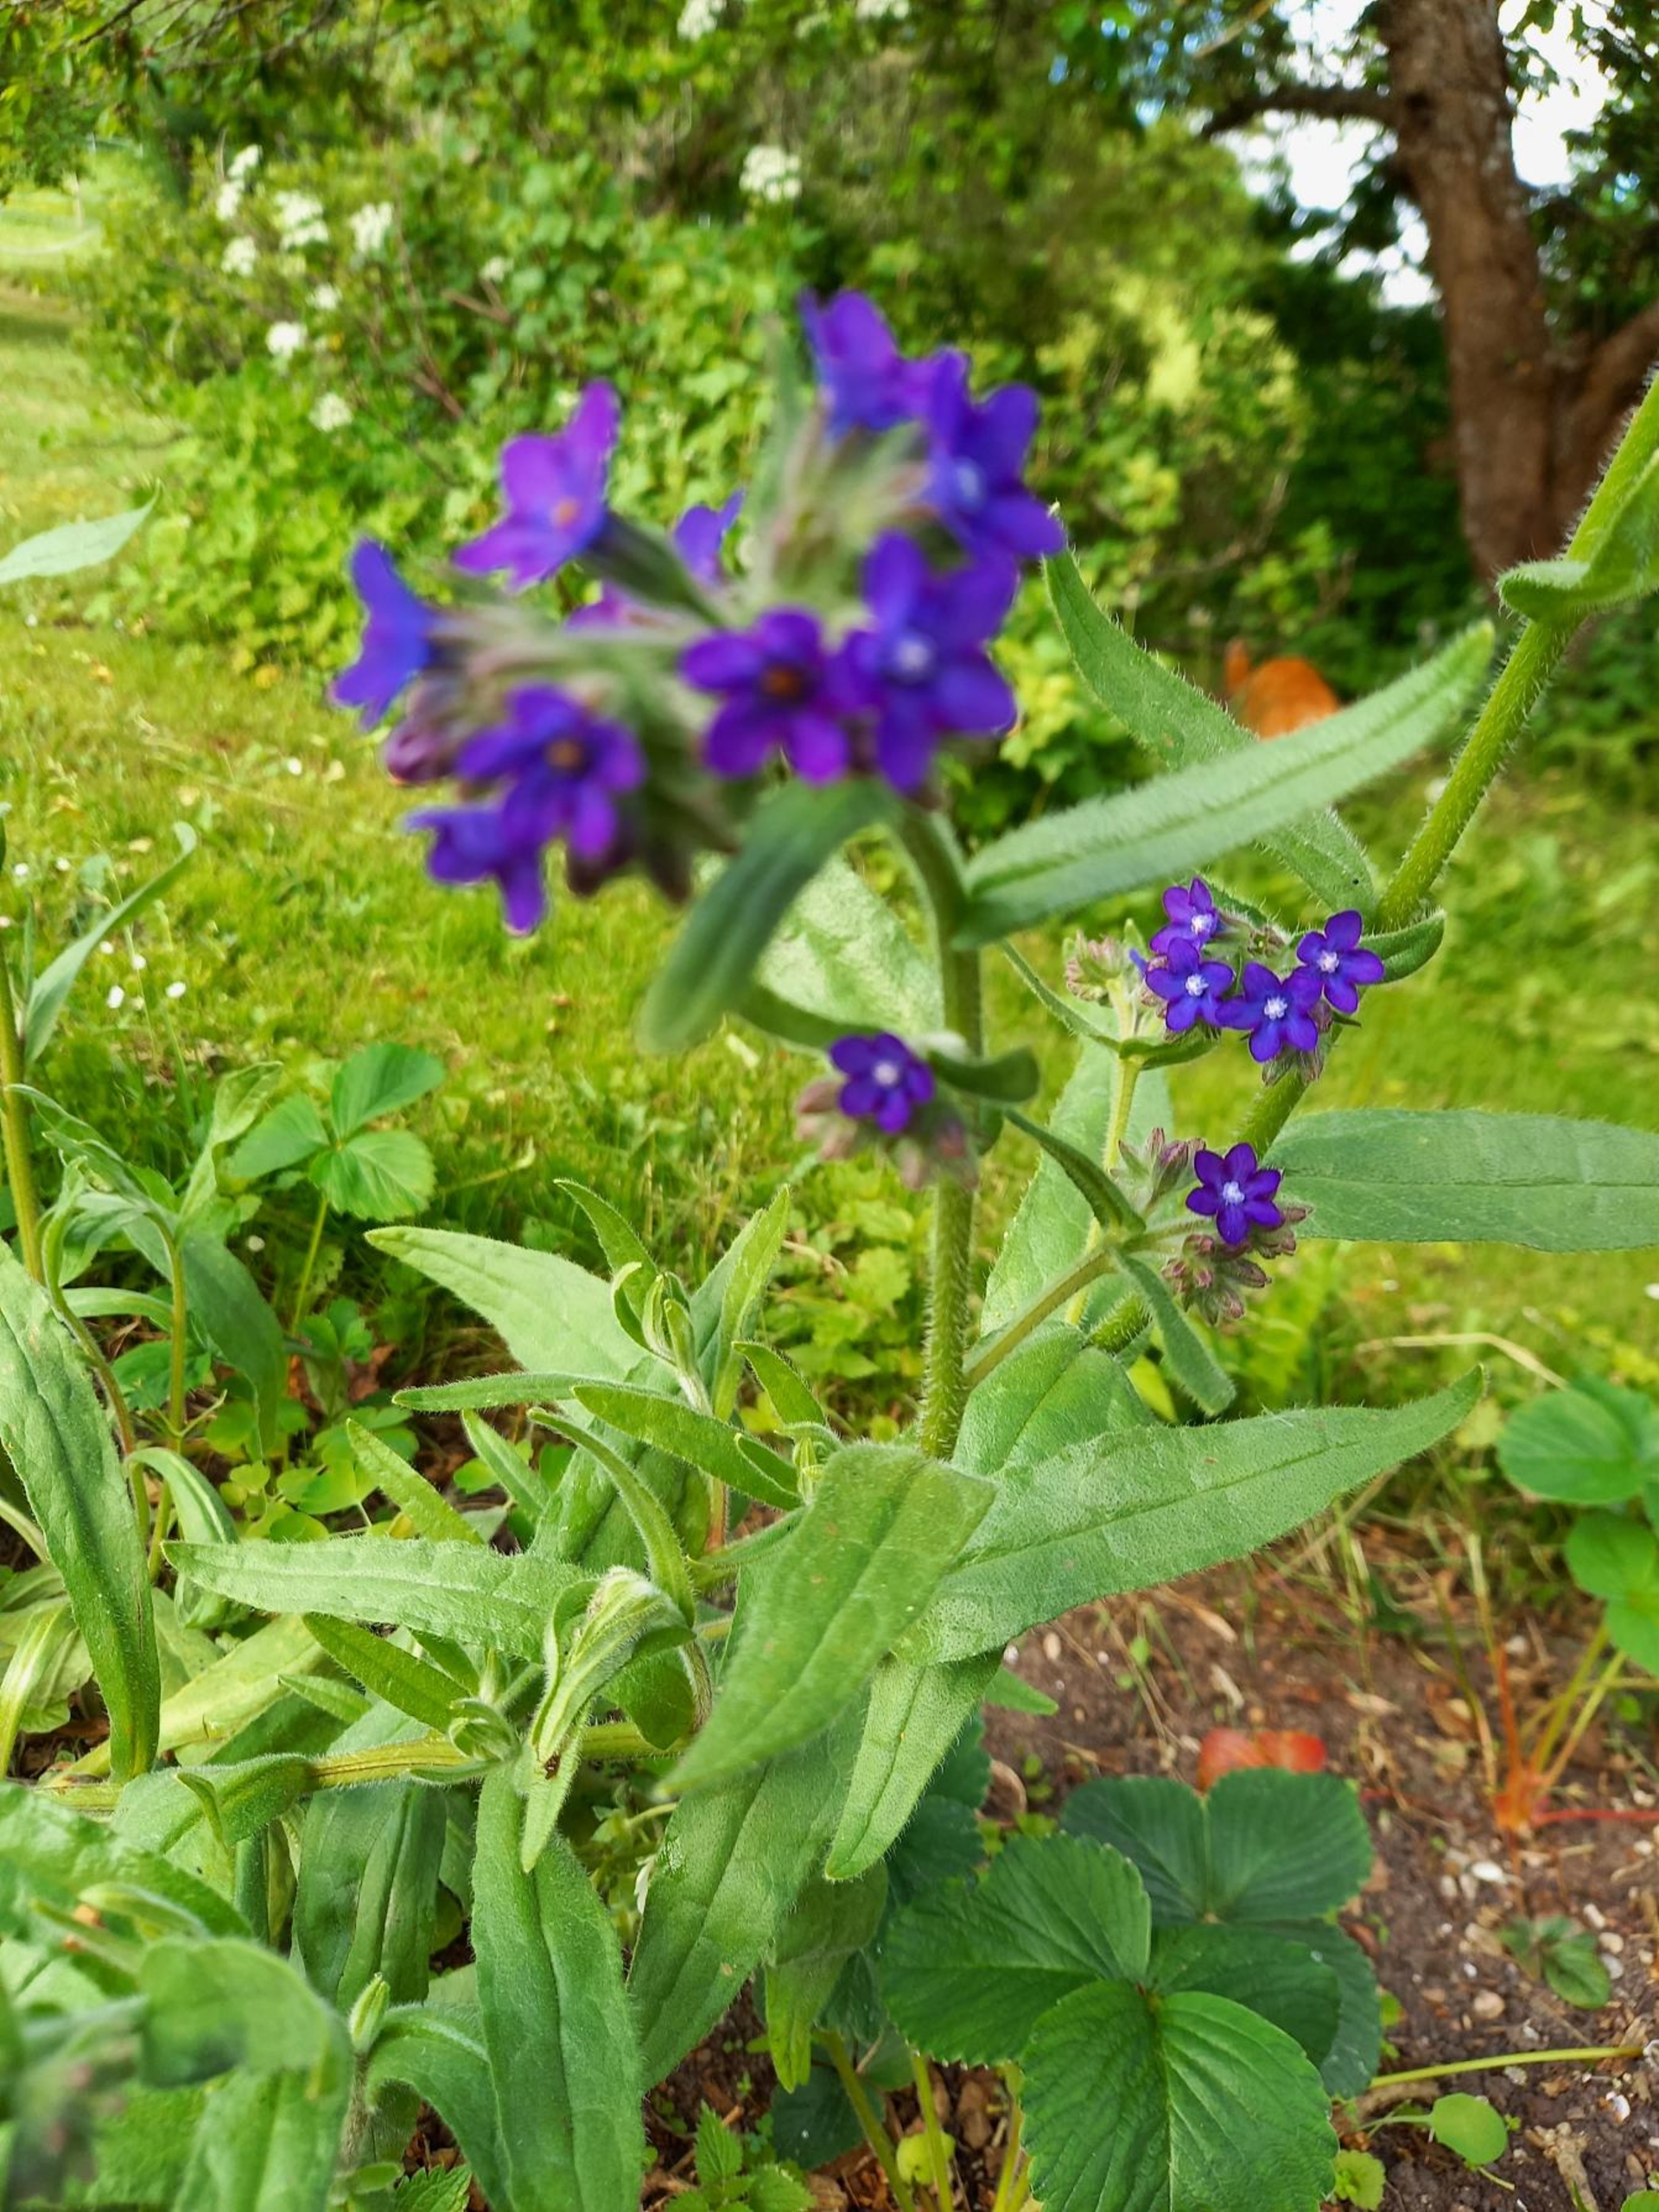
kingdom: Plantae
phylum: Tracheophyta
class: Magnoliopsida
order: Boraginales
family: Boraginaceae
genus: Anchusa
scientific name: Anchusa officinalis
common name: Læge-oksetunge
